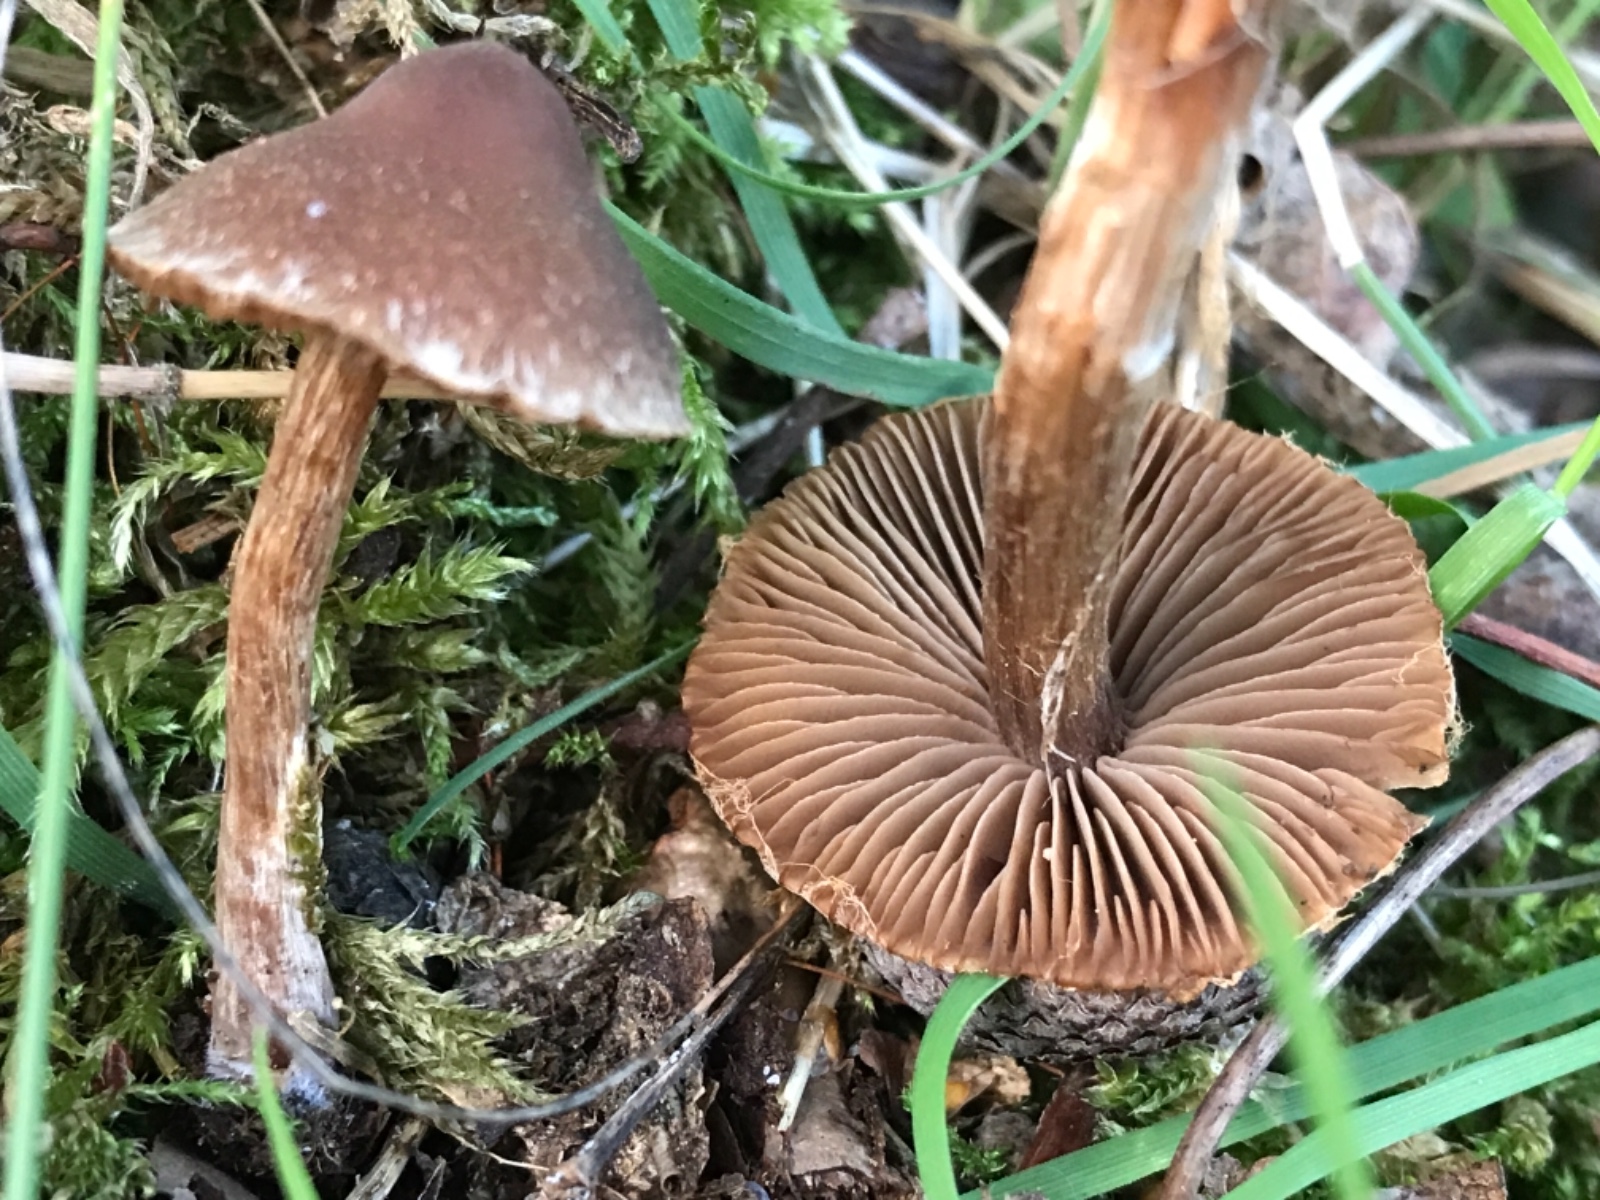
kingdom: Fungi
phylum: Basidiomycota
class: Agaricomycetes
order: Agaricales
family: Cortinariaceae
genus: Cortinarius
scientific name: Cortinarius
